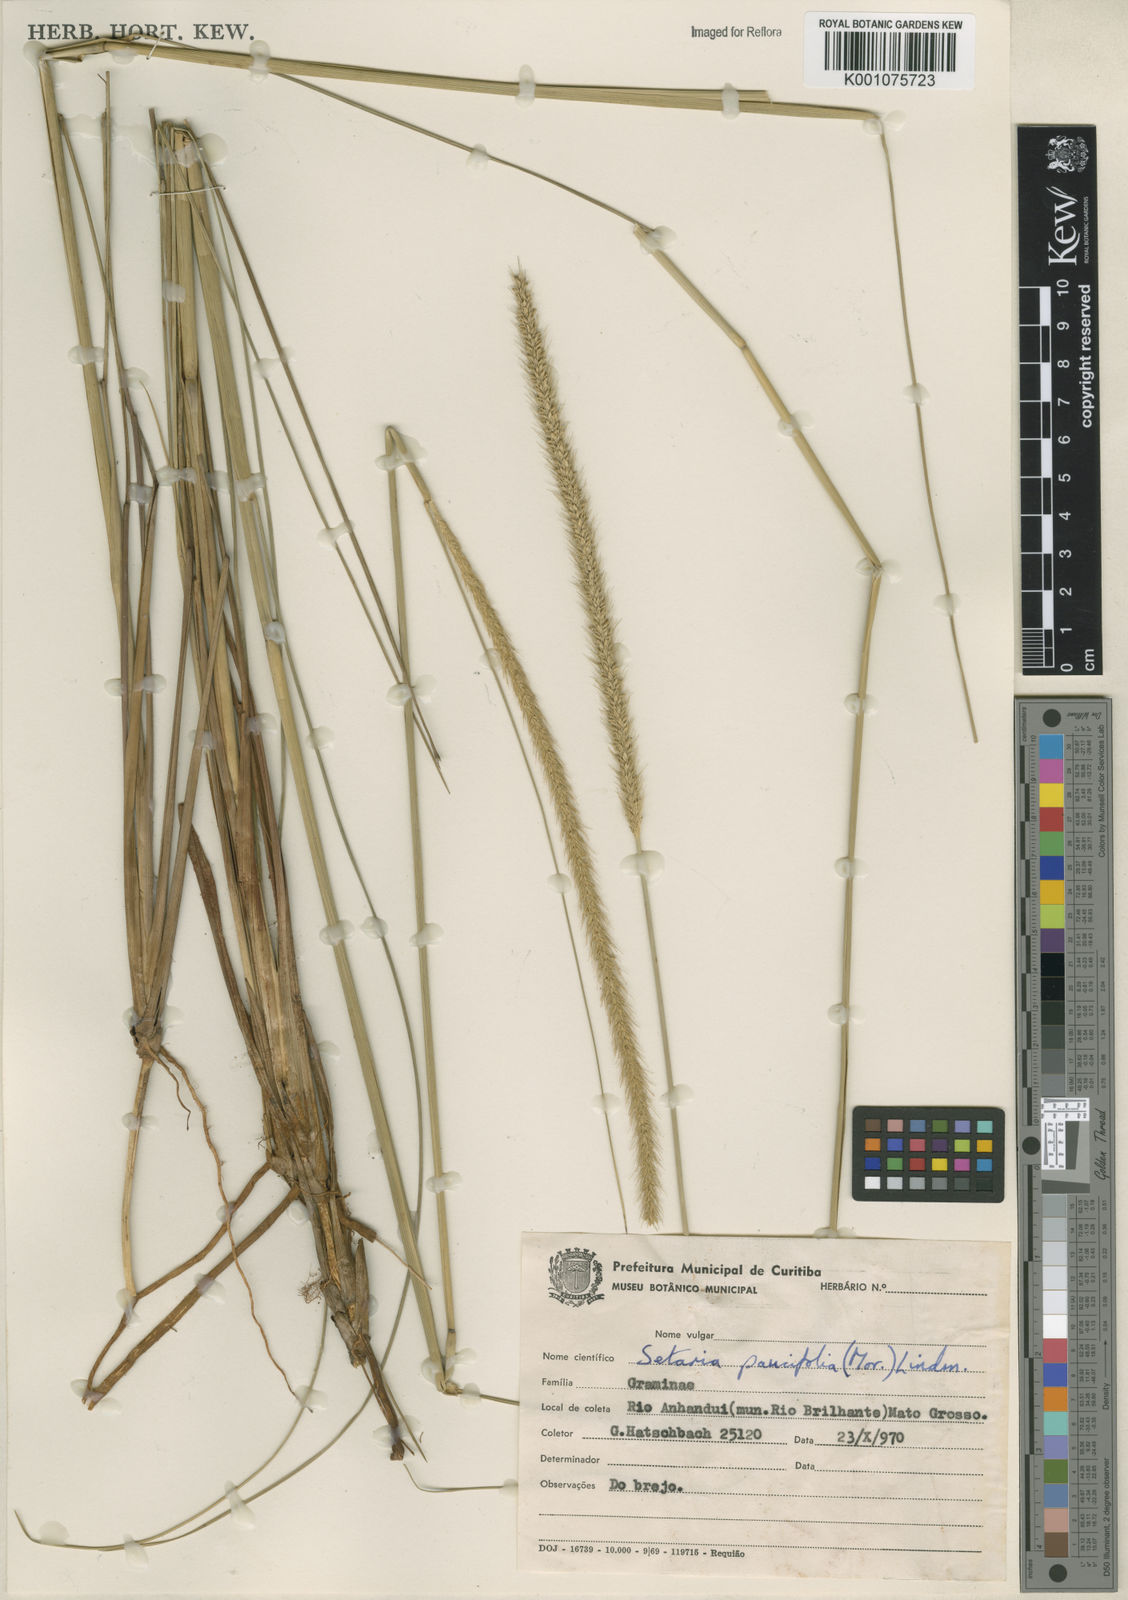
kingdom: Plantae
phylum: Tracheophyta
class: Liliopsida
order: Poales
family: Poaceae
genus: Setaria
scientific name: Setaria
